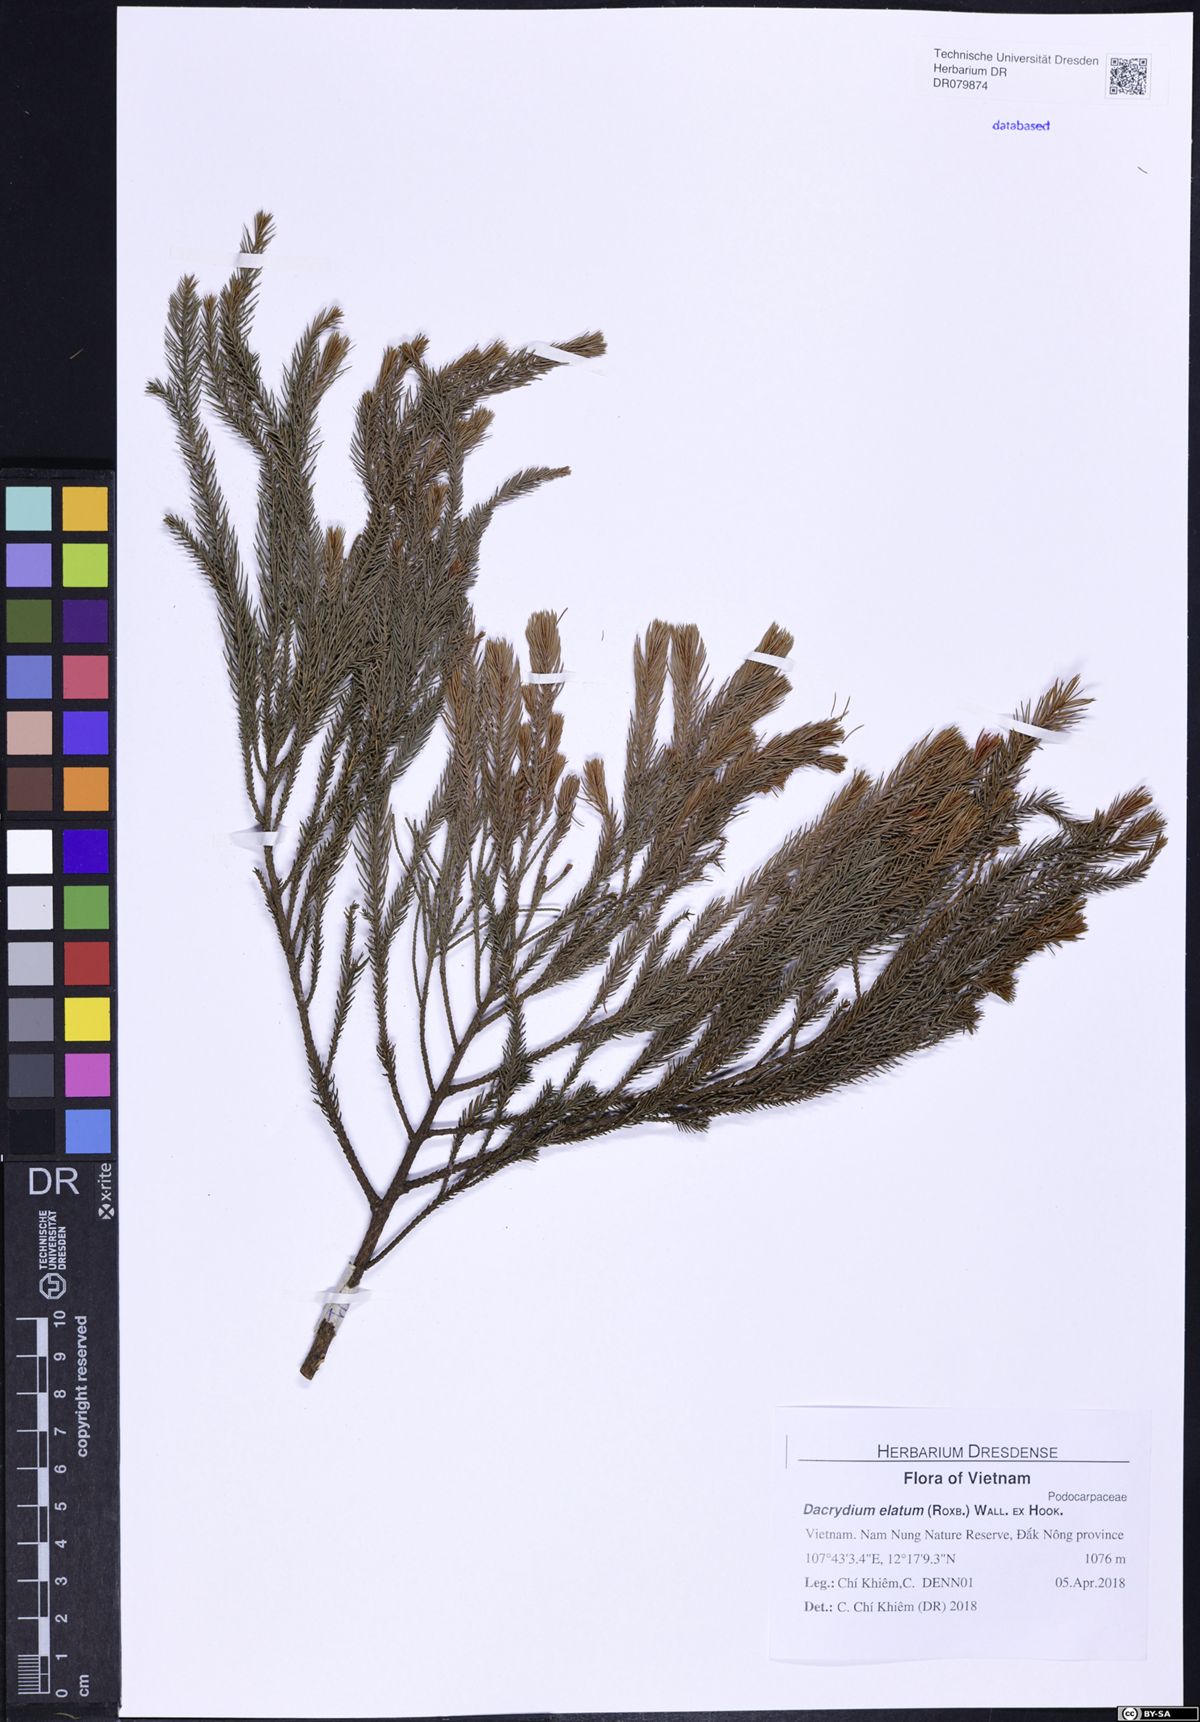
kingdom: Plantae
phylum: Tracheophyta
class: Pinopsida
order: Pinales
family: Podocarpaceae
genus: Dacrydium
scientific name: Dacrydium elatum
